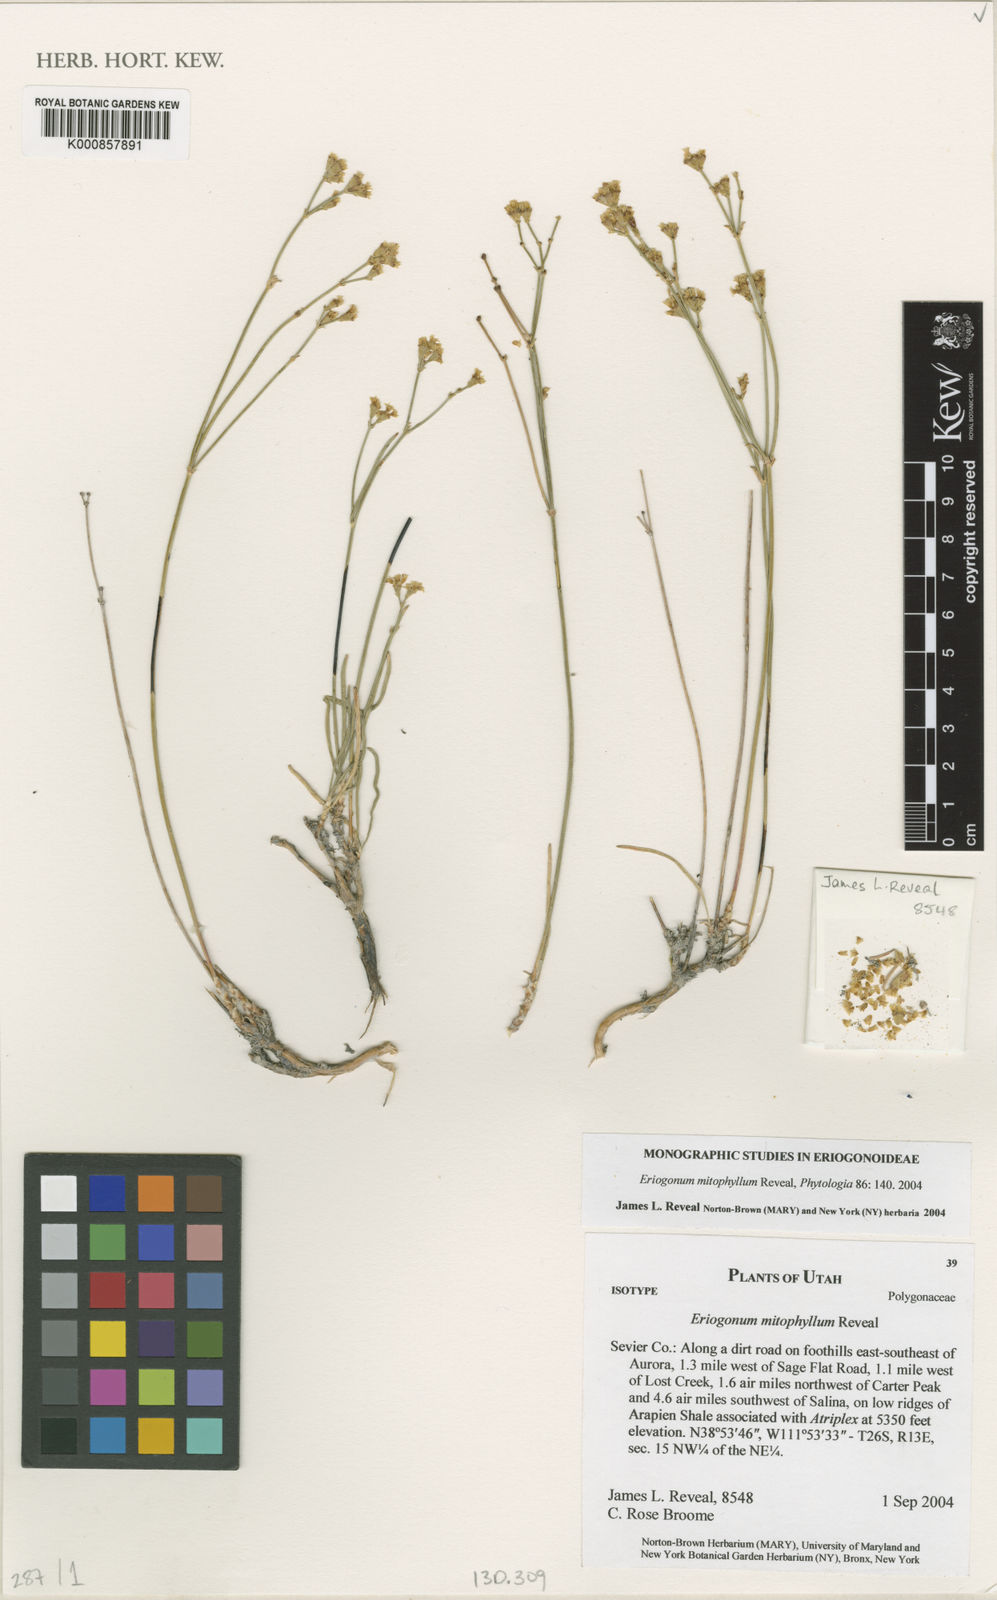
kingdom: Plantae
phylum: Tracheophyta
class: Magnoliopsida
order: Caryophyllales
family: Polygonaceae
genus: Eriogonum
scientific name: Eriogonum brevicaule
